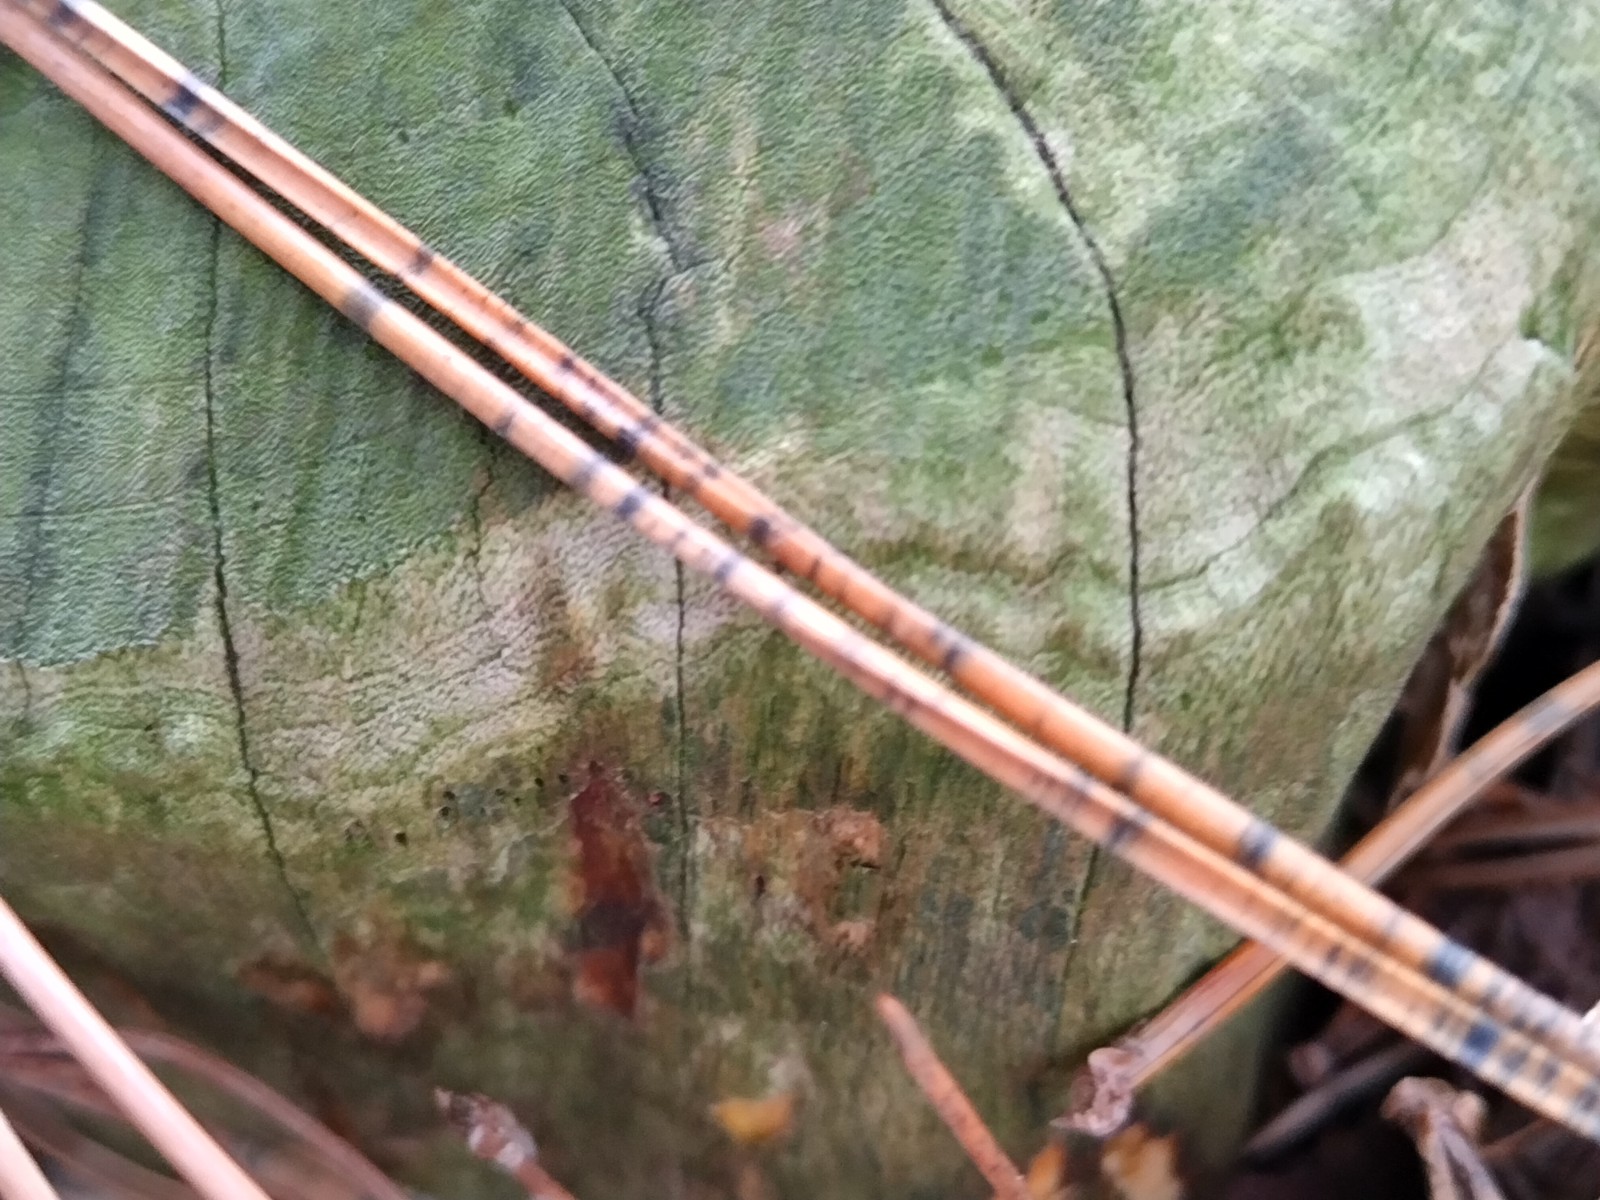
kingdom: Fungi
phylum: Ascomycota
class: Leotiomycetes
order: Rhytismatales
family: Rhytismataceae
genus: Lophodermium
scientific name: Lophodermium pinastri
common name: fyrre-fureplet
